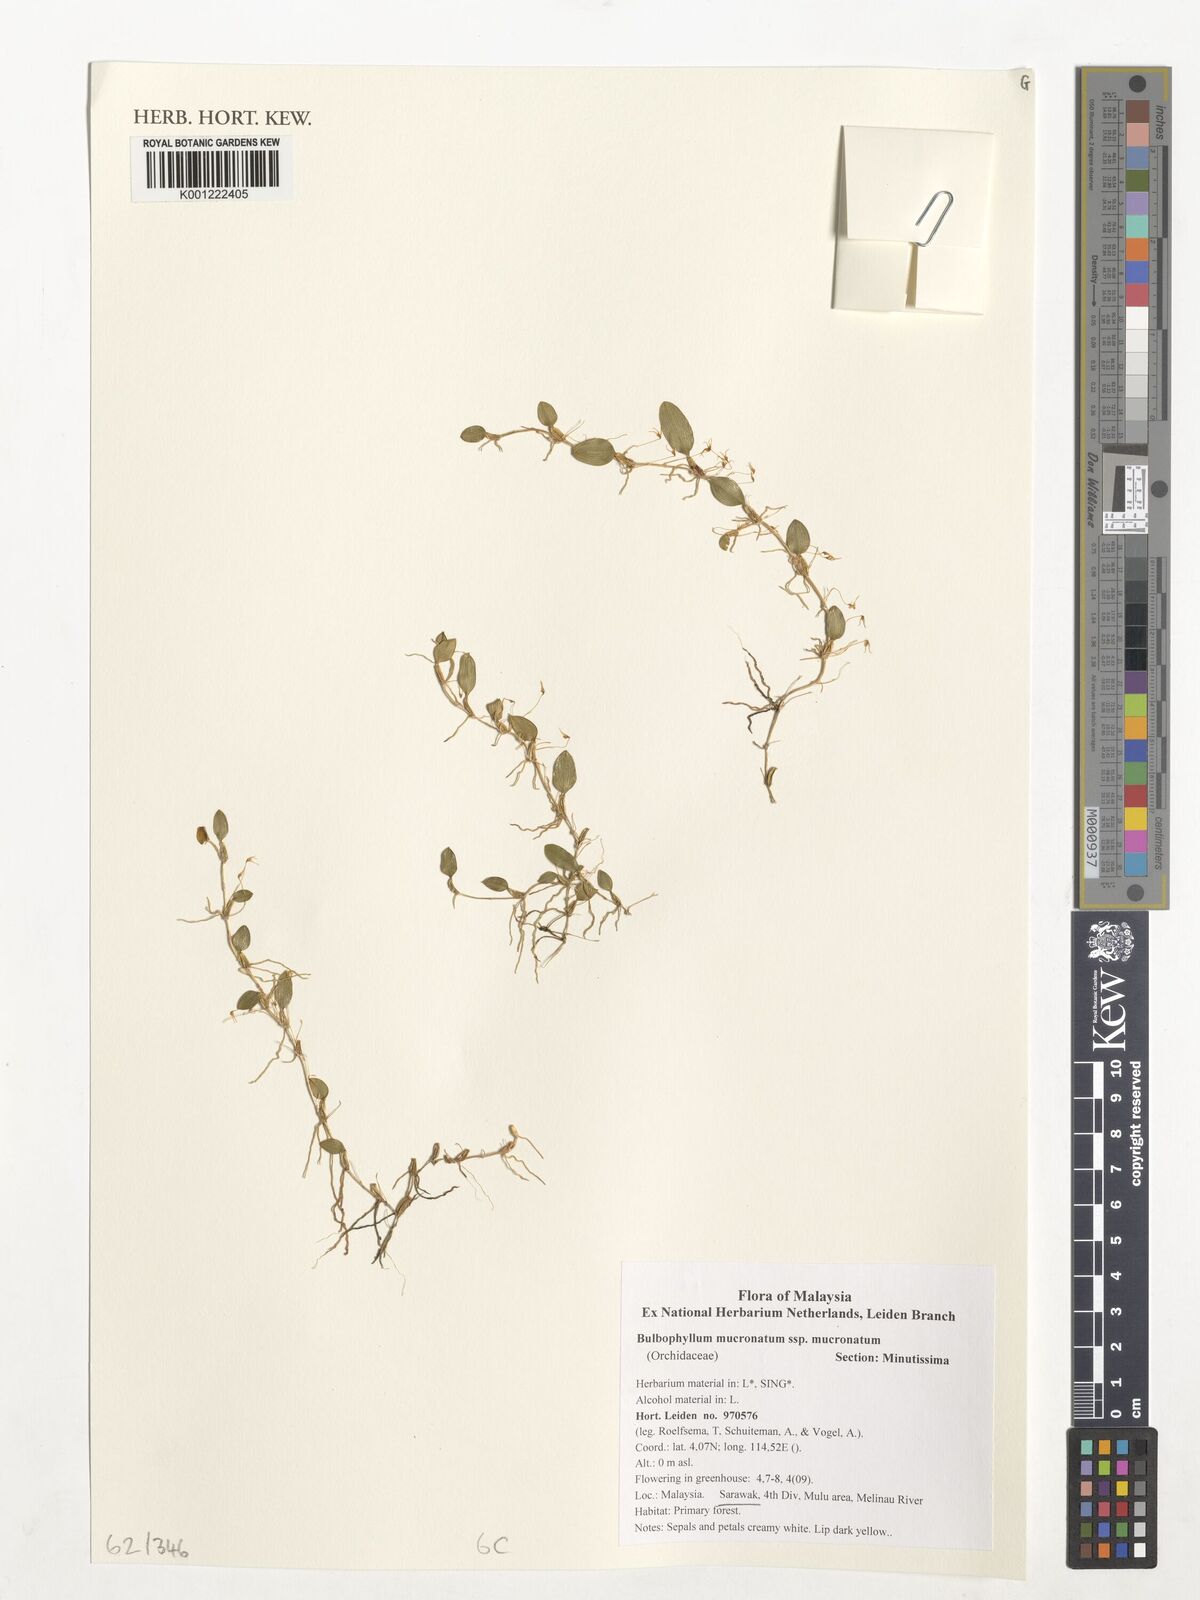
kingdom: Plantae
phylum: Tracheophyta
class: Liliopsida
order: Asparagales
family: Orchidaceae
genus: Bulbophyllum
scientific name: Bulbophyllum mucronatum
